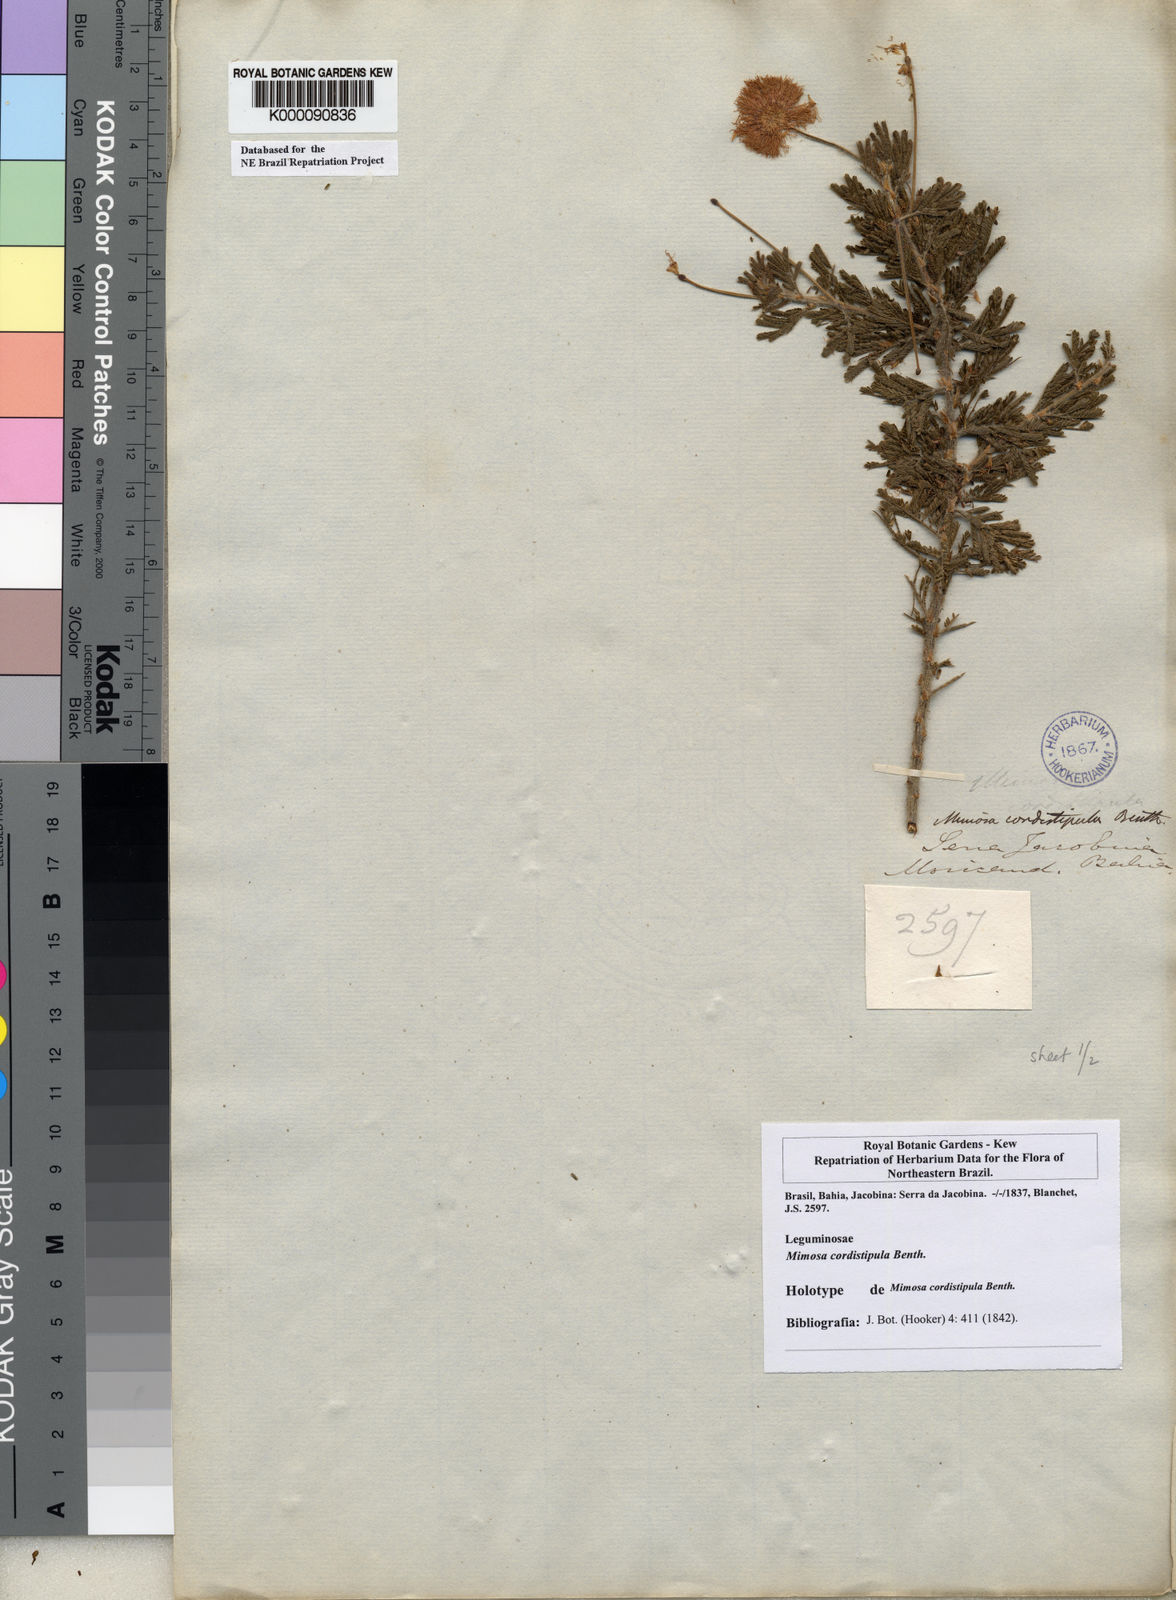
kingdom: Plantae
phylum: Tracheophyta
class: Magnoliopsida
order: Fabales
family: Fabaceae
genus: Mimosa
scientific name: Mimosa cordistipula
